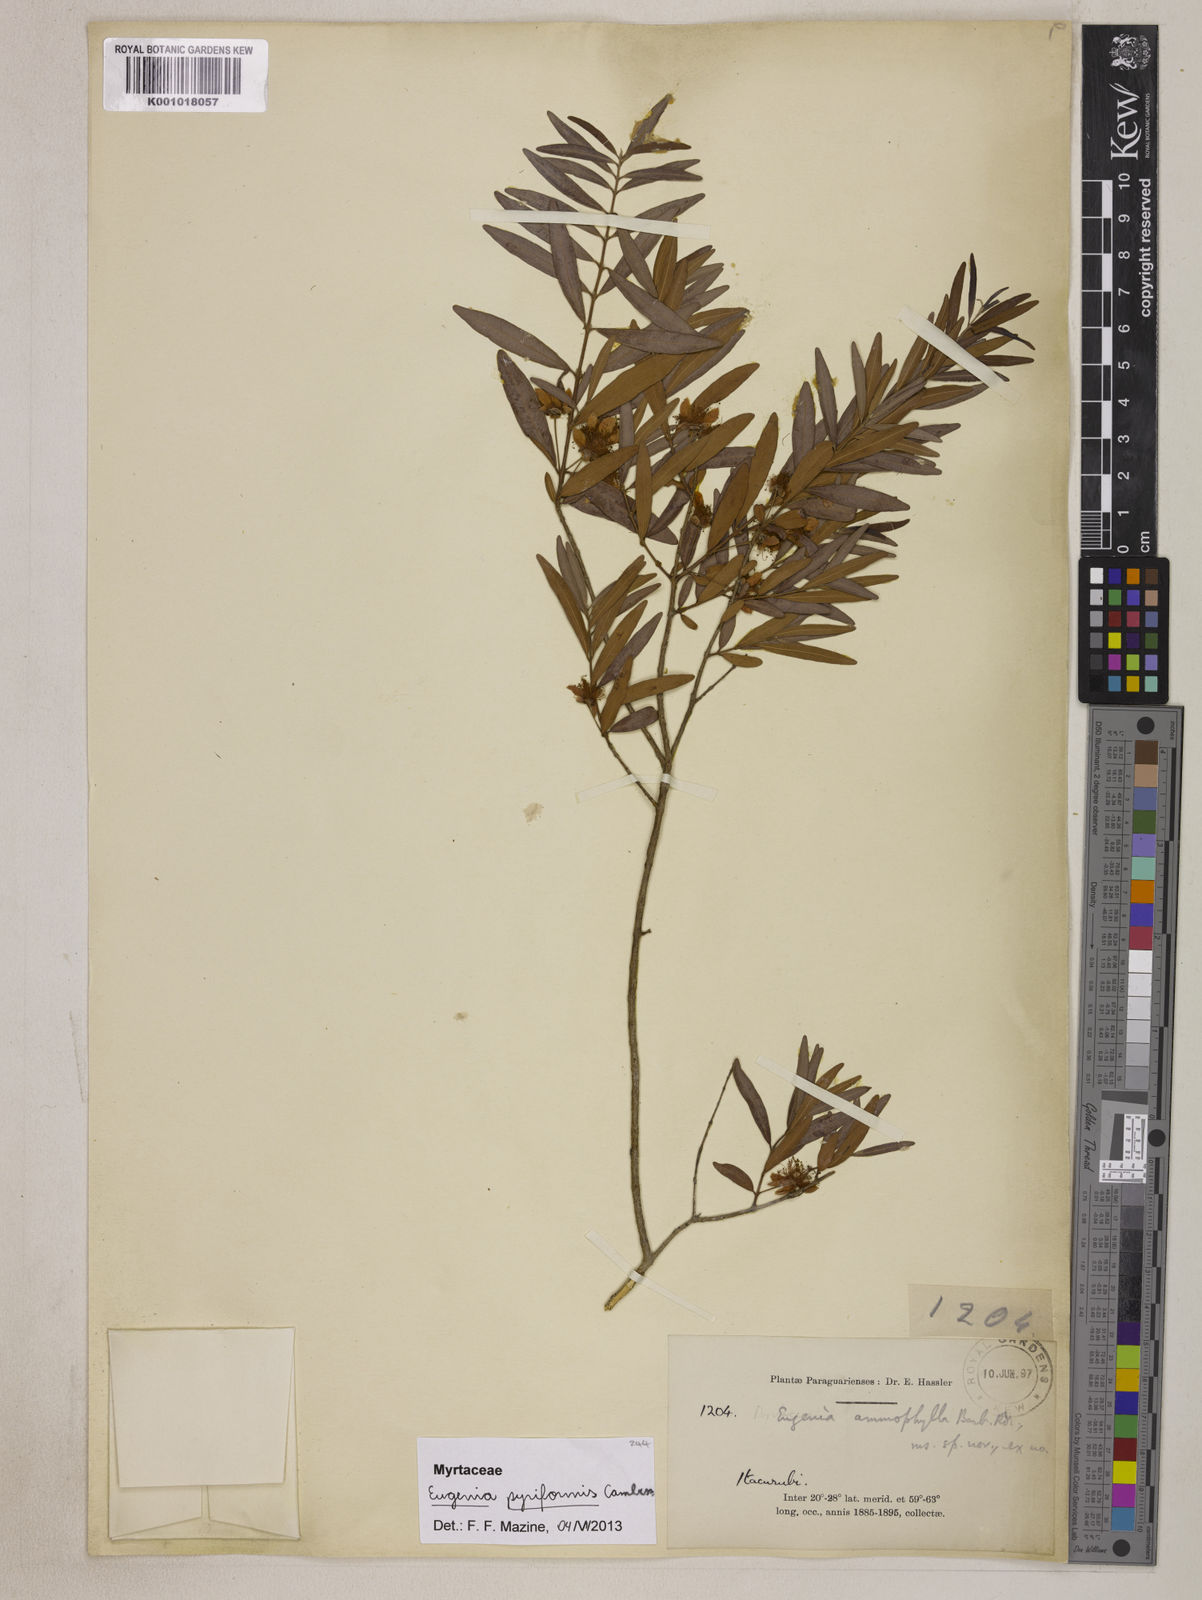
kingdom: Plantae
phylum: Tracheophyta
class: Magnoliopsida
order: Myrtales
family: Myrtaceae
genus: Eugenia
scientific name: Eugenia pyriformis
